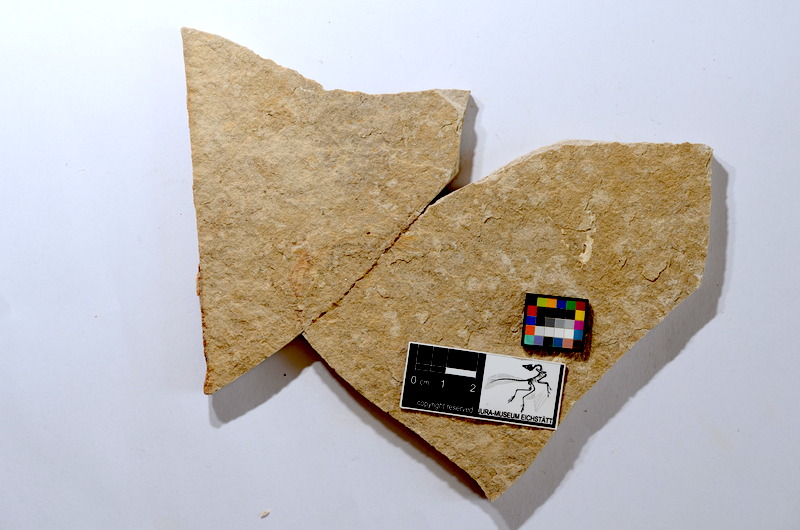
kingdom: Animalia
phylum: Chordata
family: Ascalaboidae
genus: Tharsis
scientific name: Tharsis dubius
